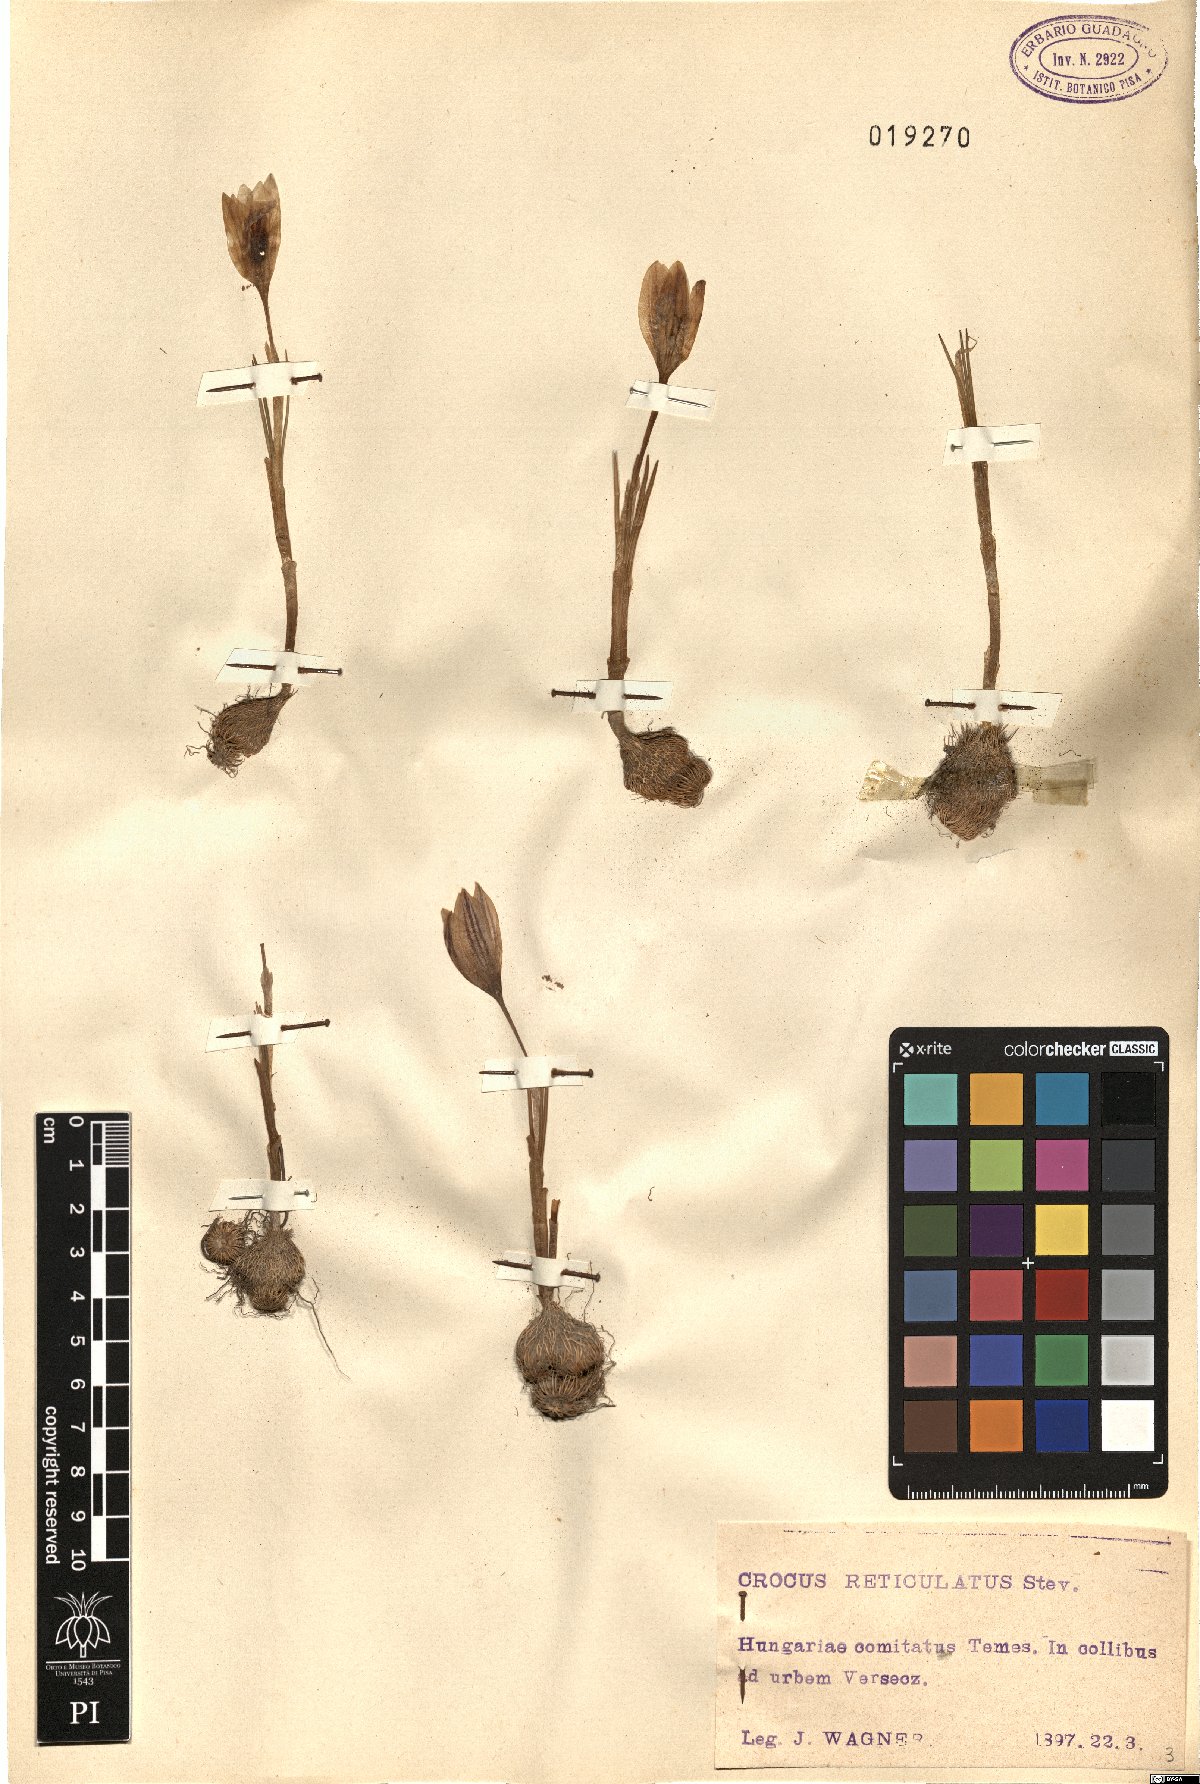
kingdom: Plantae
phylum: Tracheophyta
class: Liliopsida
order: Asparagales
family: Iridaceae
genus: Crocus
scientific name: Crocus reticulatus
